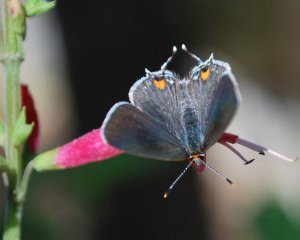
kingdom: Animalia
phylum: Arthropoda
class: Insecta
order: Lepidoptera
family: Lycaenidae
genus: Strymon
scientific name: Strymon melinus
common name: Gray Hairstreak
